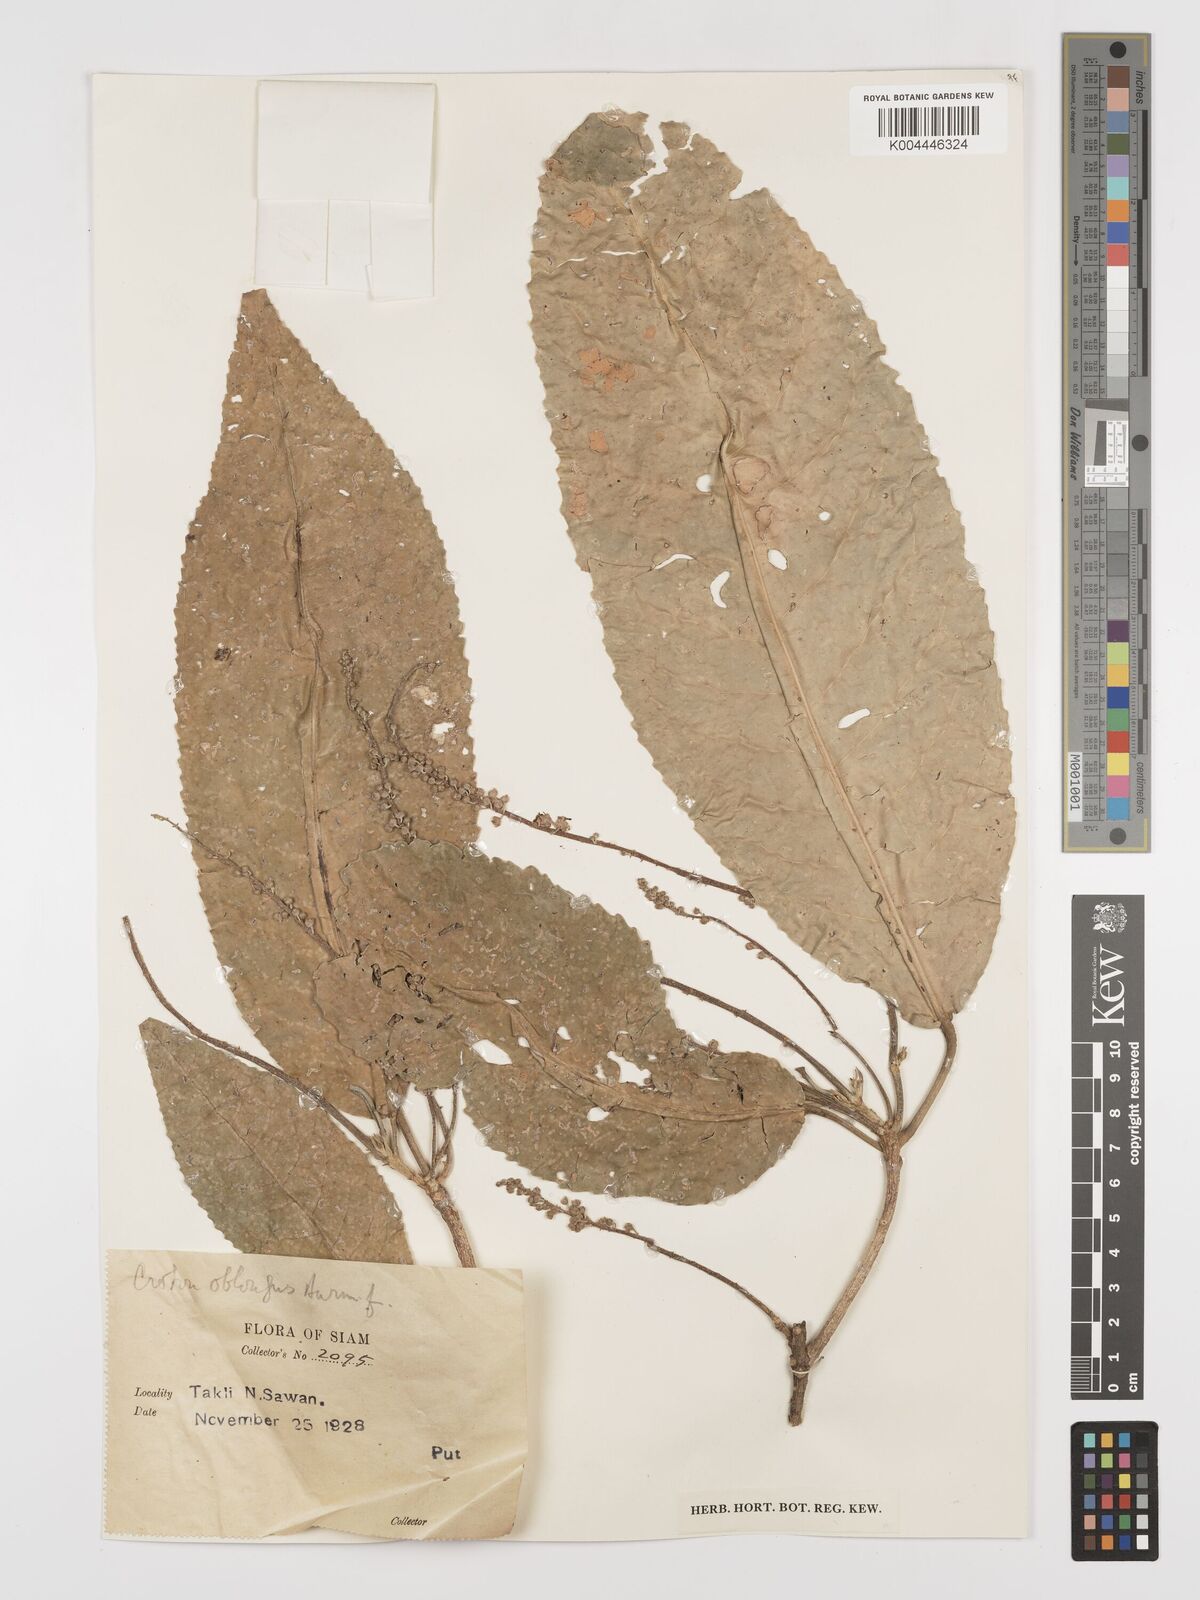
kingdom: Plantae
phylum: Tracheophyta
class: Magnoliopsida
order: Malpighiales
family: Euphorbiaceae
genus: Baliospermum
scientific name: Baliospermum solanifolium
